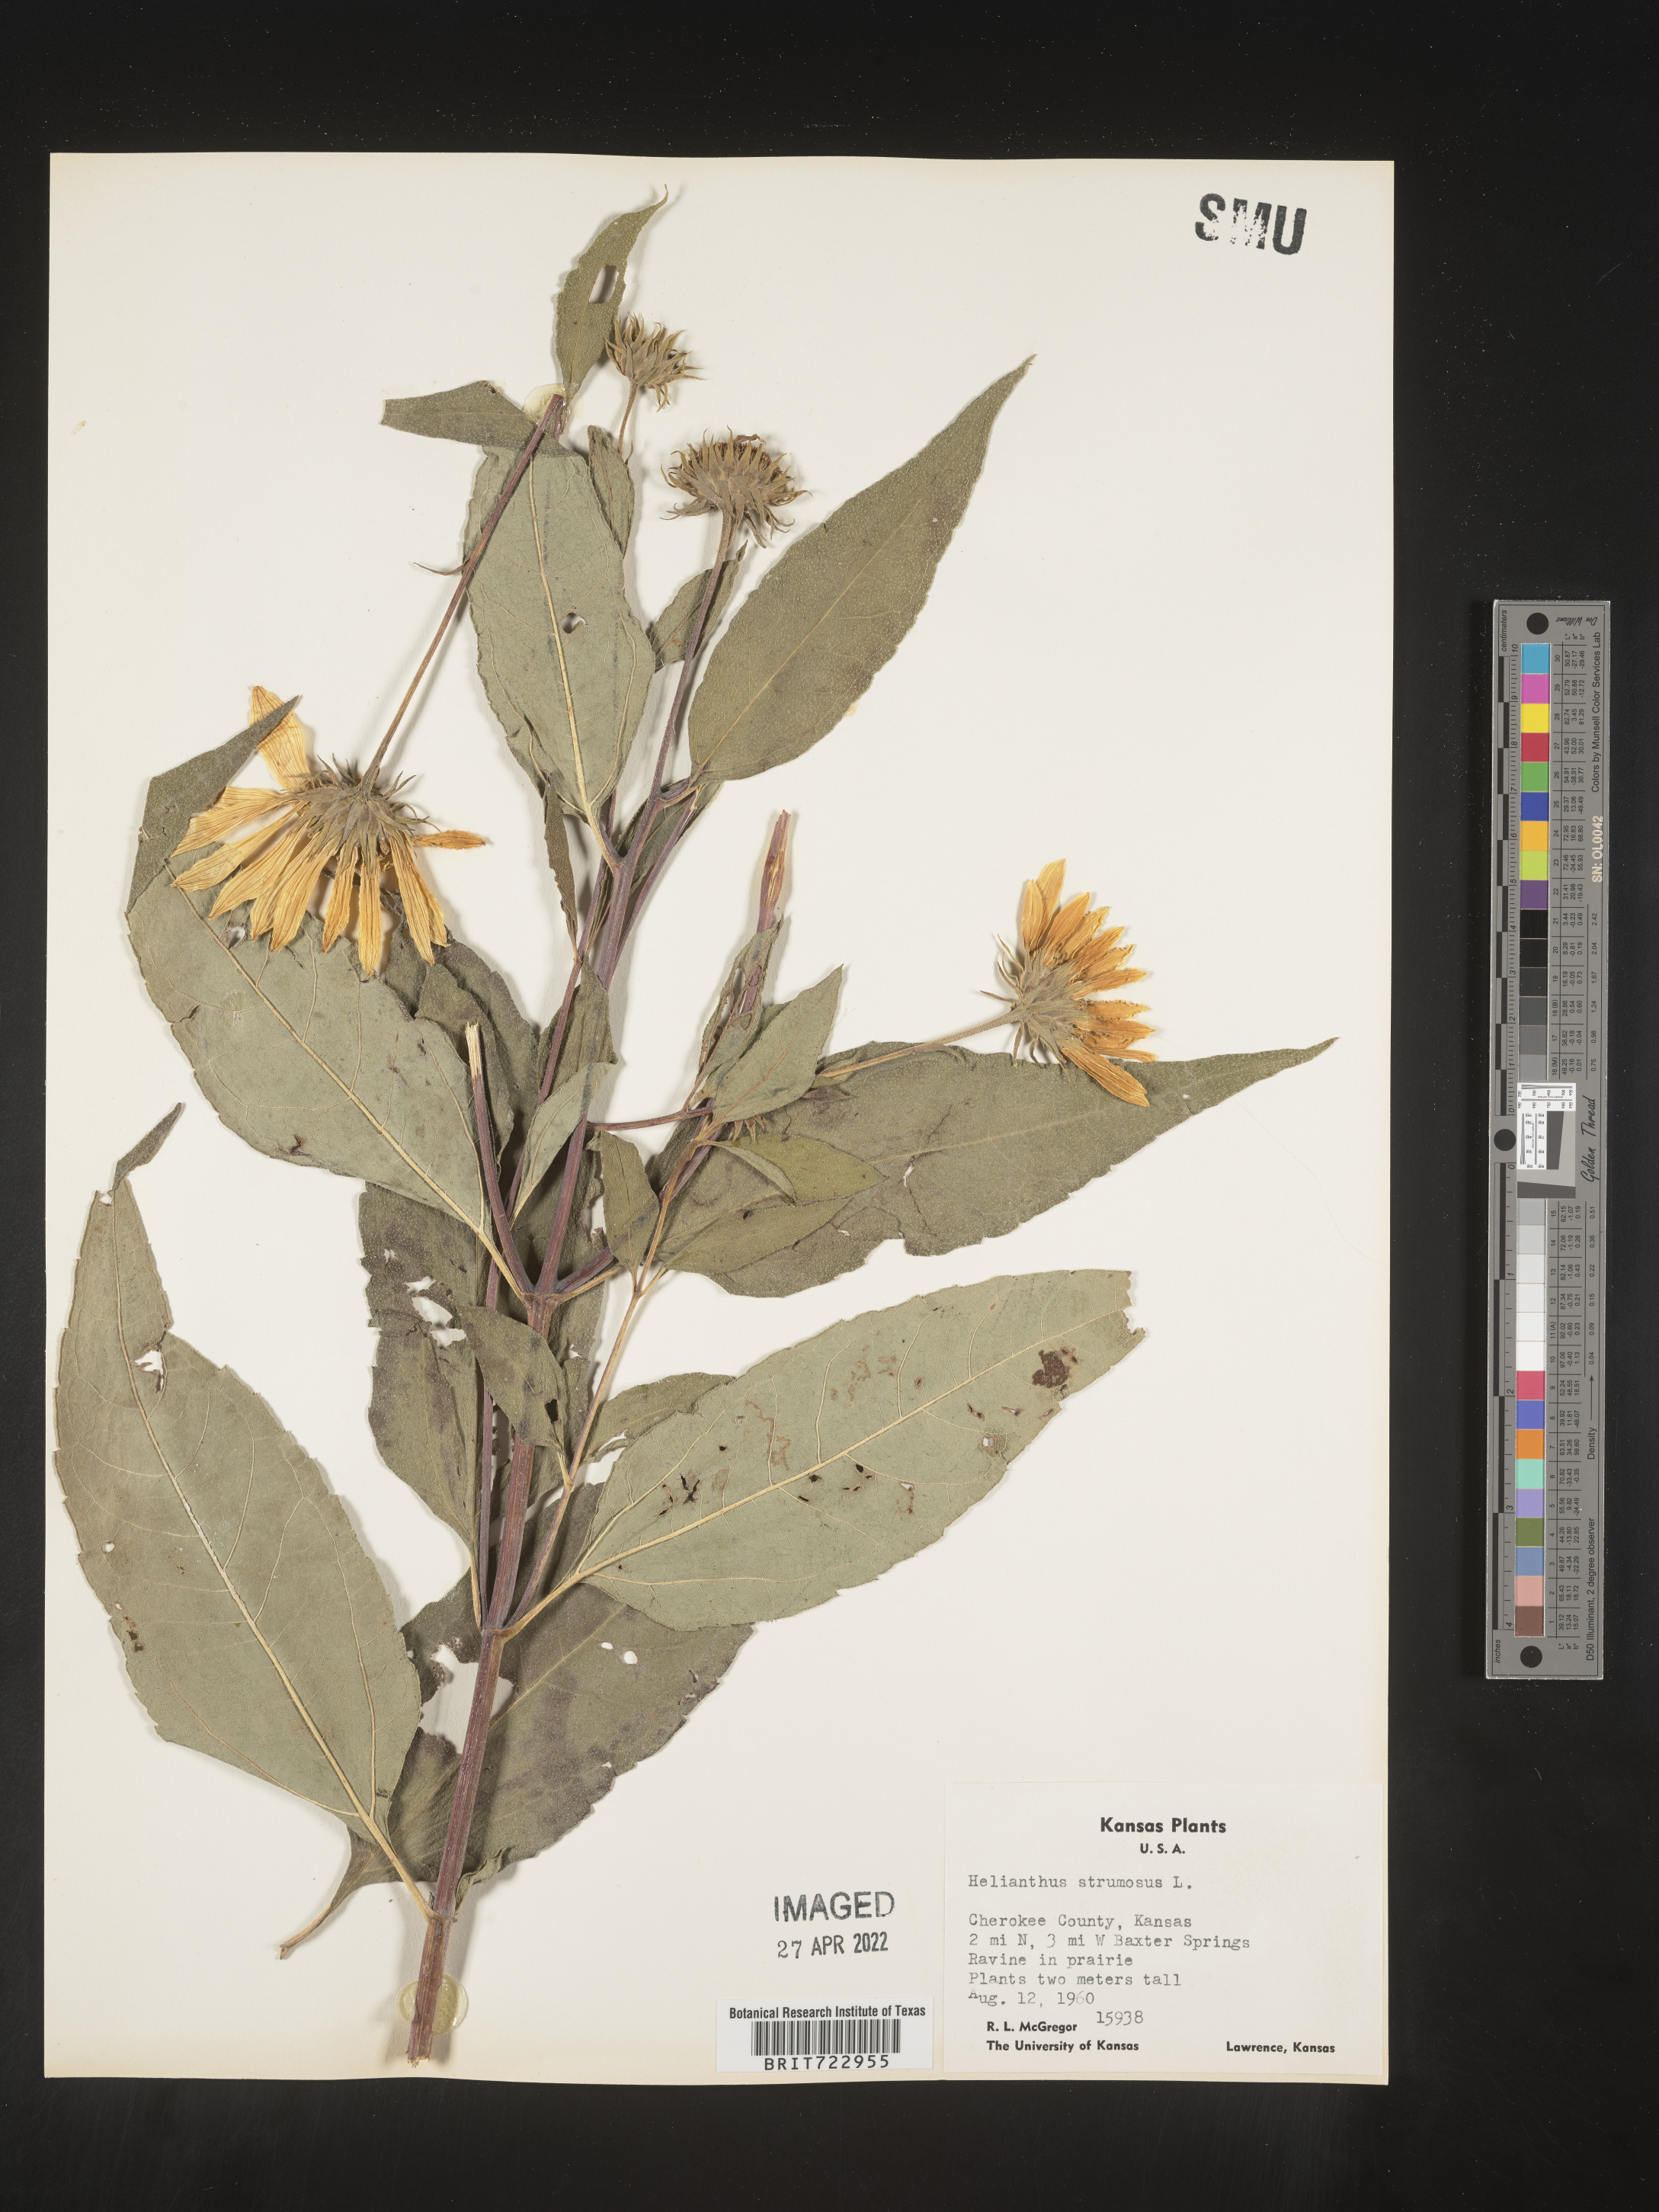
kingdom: Plantae
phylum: Tracheophyta
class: Magnoliopsida
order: Asterales
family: Asteraceae
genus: Helianthus
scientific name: Helianthus strumosus
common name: Pale-leaved sunflower
